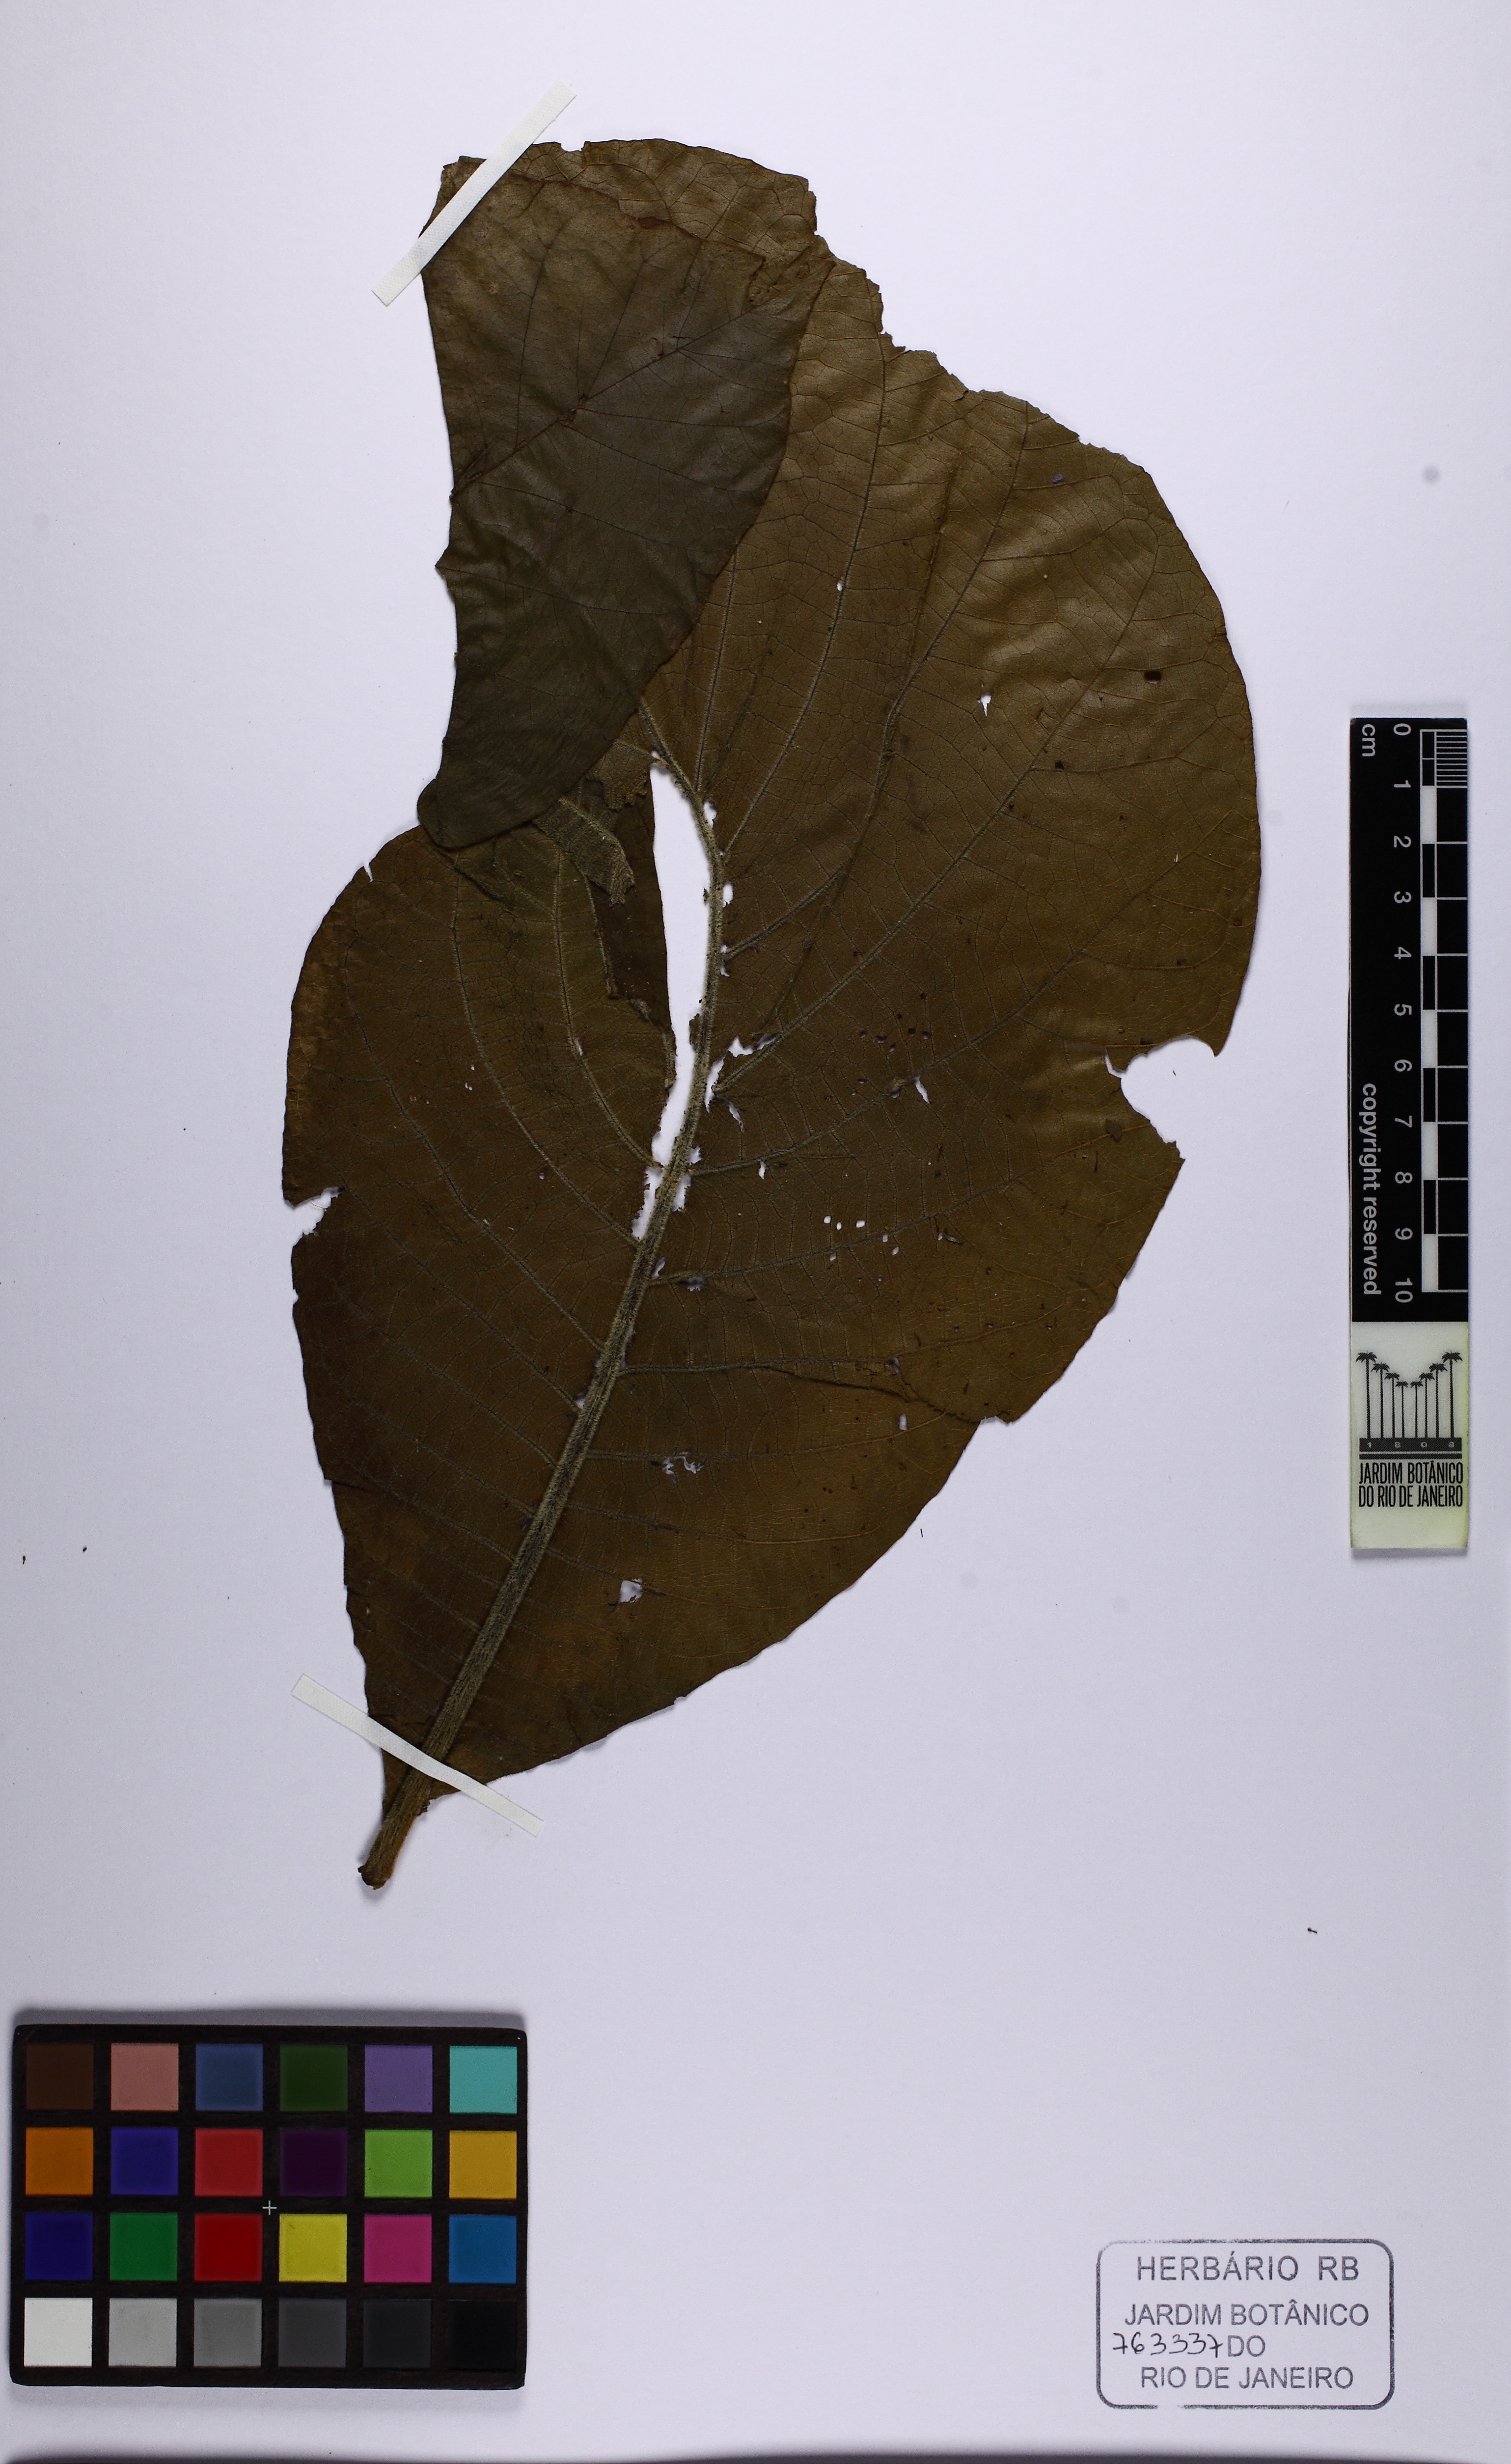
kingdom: Plantae
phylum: Tracheophyta
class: Magnoliopsida
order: Gentianales
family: Rubiaceae
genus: Bathysa
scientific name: Bathysa australis
